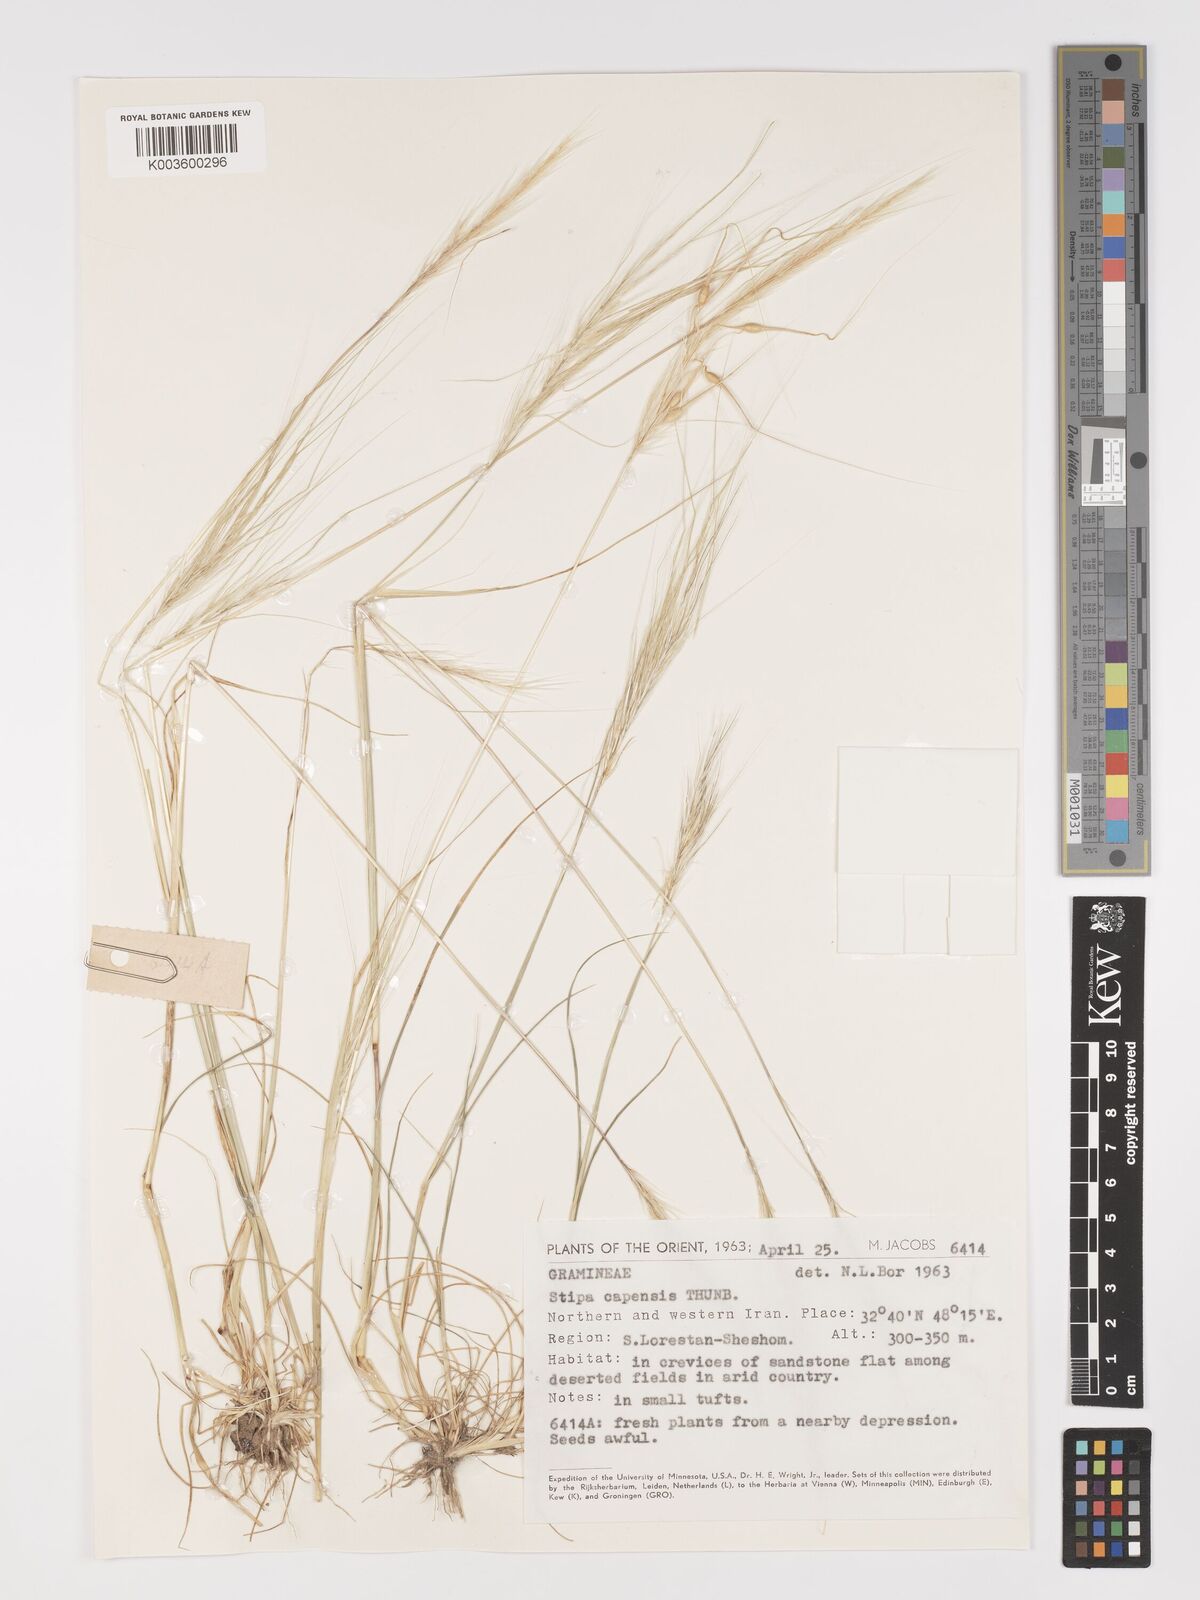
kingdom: Plantae
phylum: Tracheophyta
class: Liliopsida
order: Poales
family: Poaceae
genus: Stipellula
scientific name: Stipellula capensis
